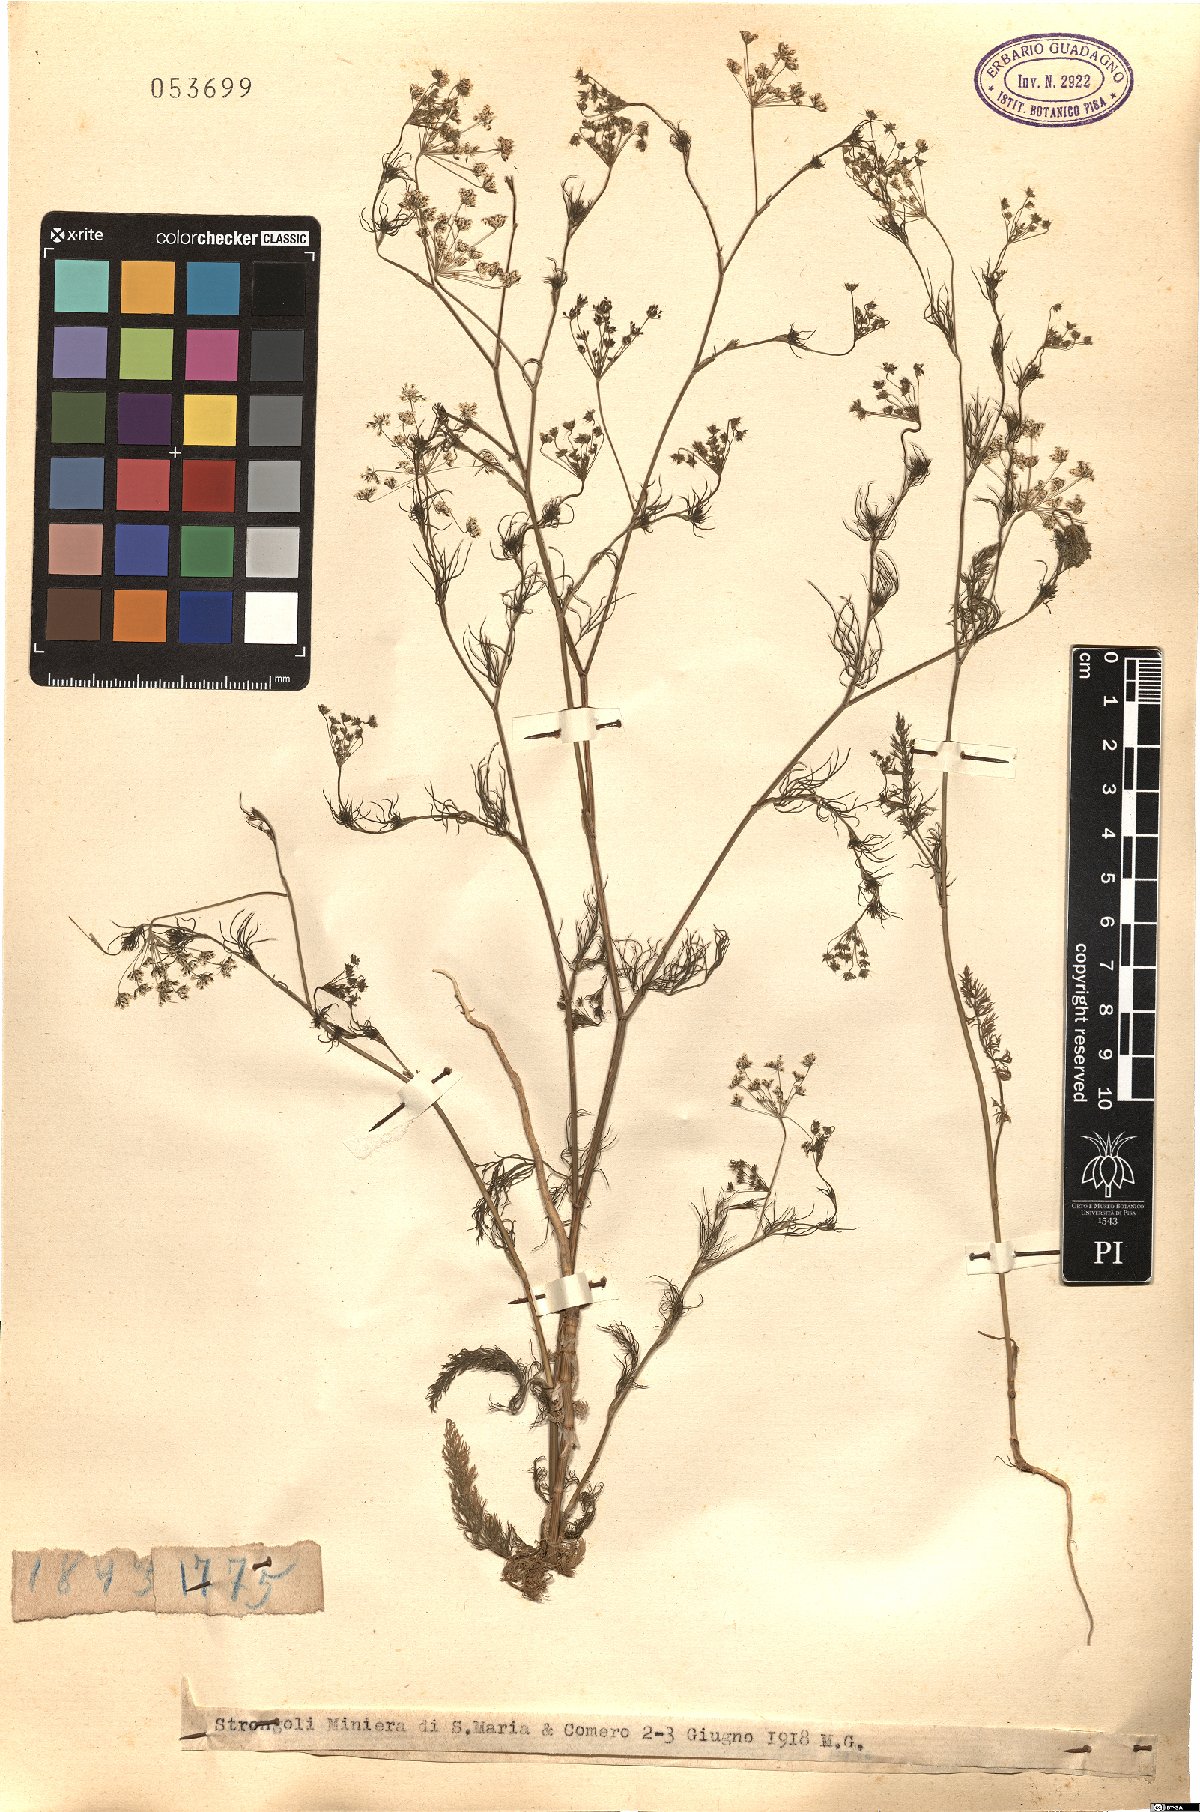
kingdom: Plantae
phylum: Tracheophyta
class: Magnoliopsida
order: Apiales
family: Apiaceae
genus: Ptychotis
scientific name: Ptychotis
